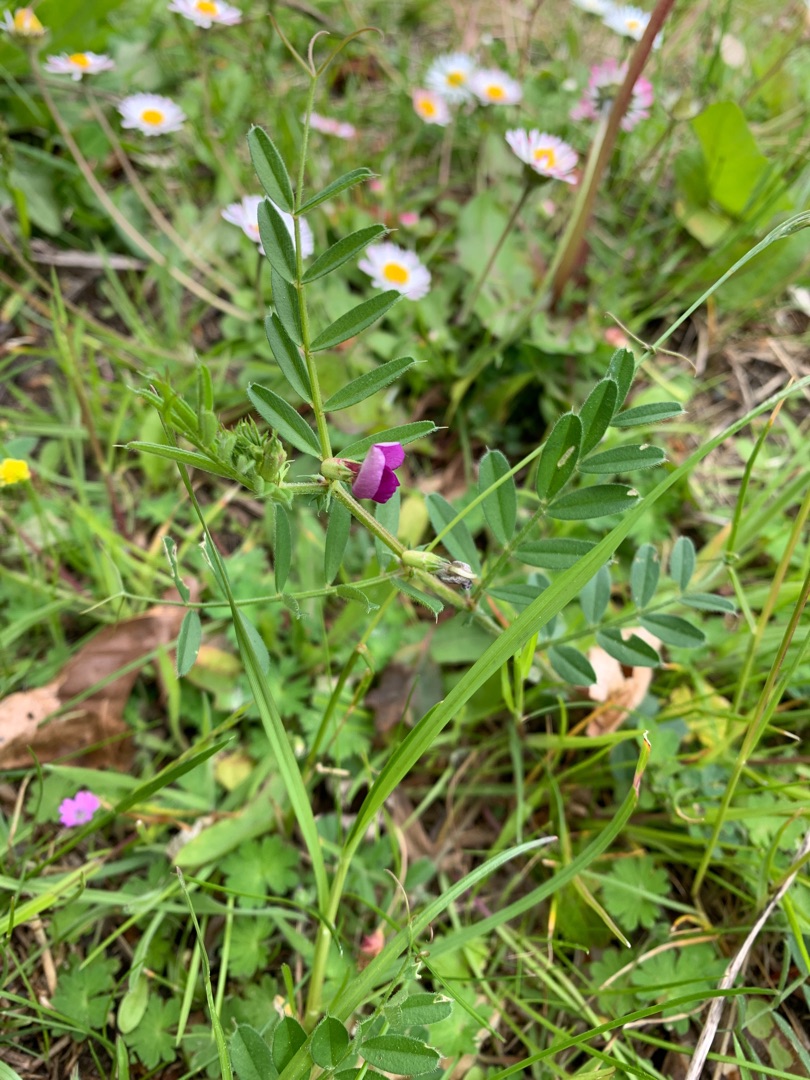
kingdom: Plantae
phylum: Tracheophyta
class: Magnoliopsida
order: Fabales
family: Fabaceae
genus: Vicia
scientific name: Vicia sativa
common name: Ager-vikke
